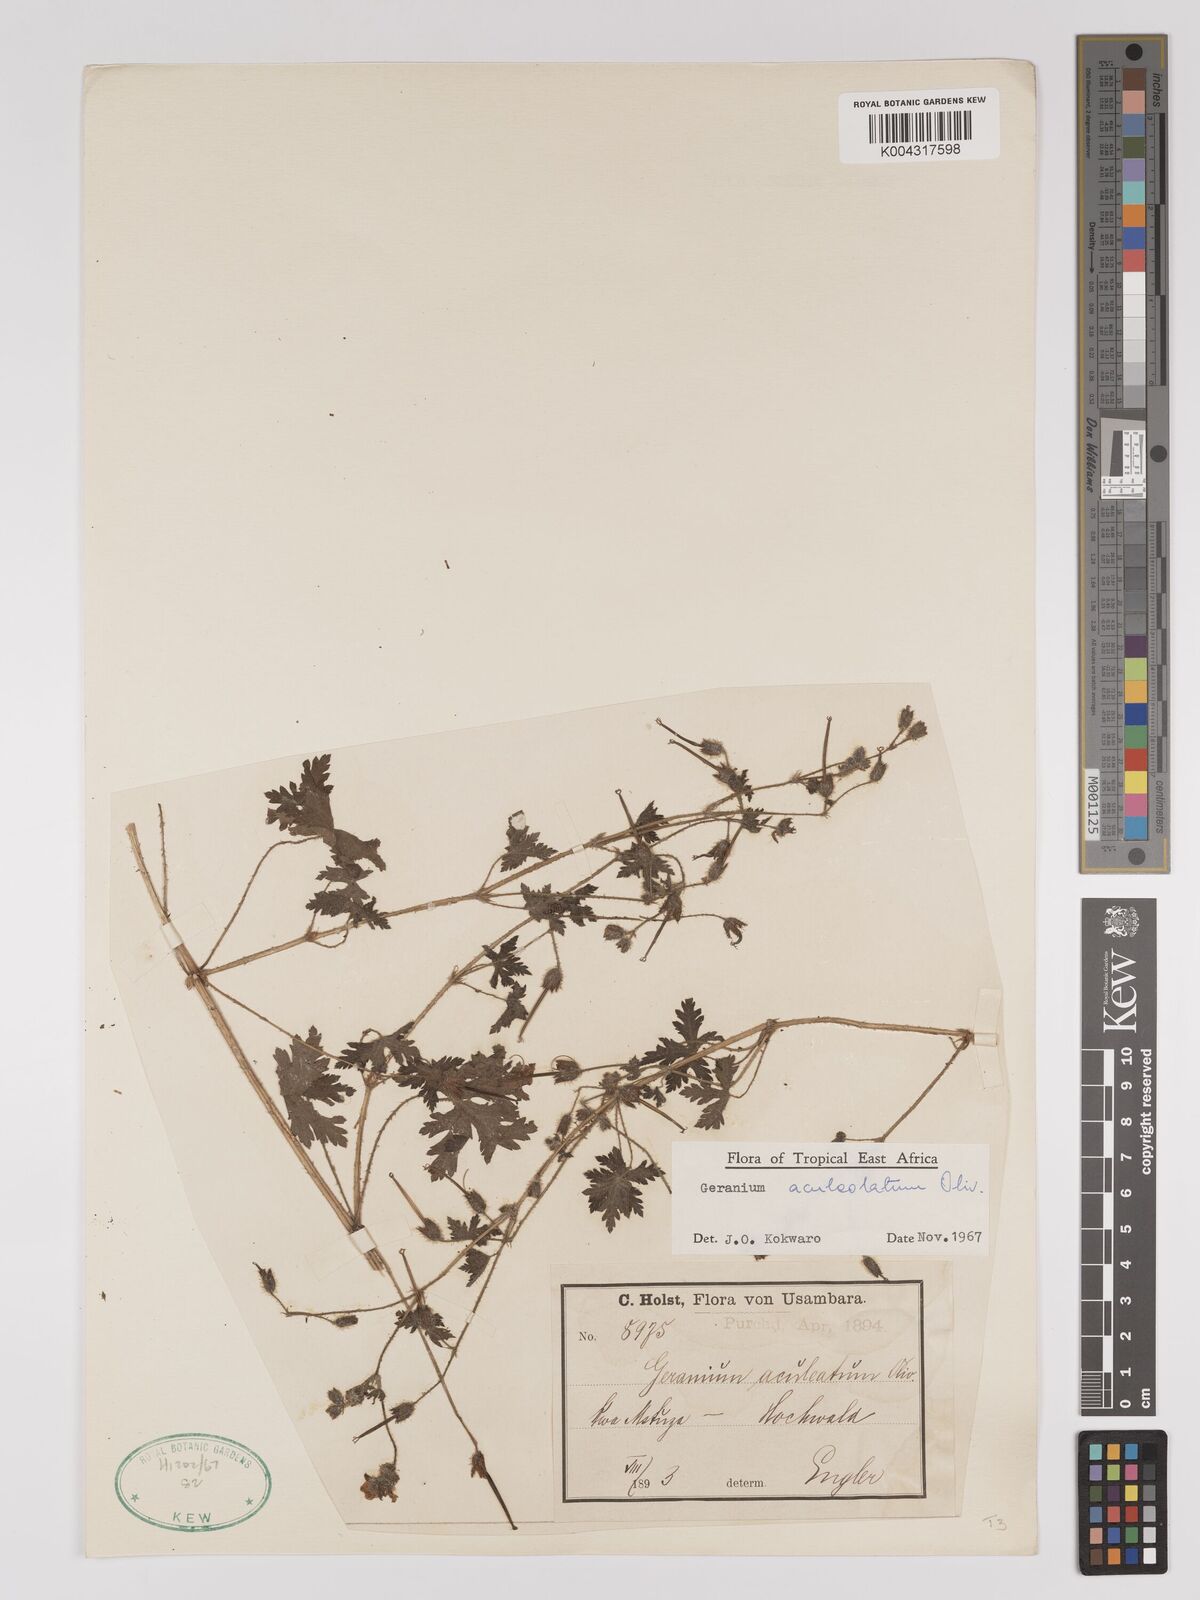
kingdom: Plantae
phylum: Tracheophyta
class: Magnoliopsida
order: Geraniales
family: Geraniaceae
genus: Geranium
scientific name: Geranium aculeolatum
